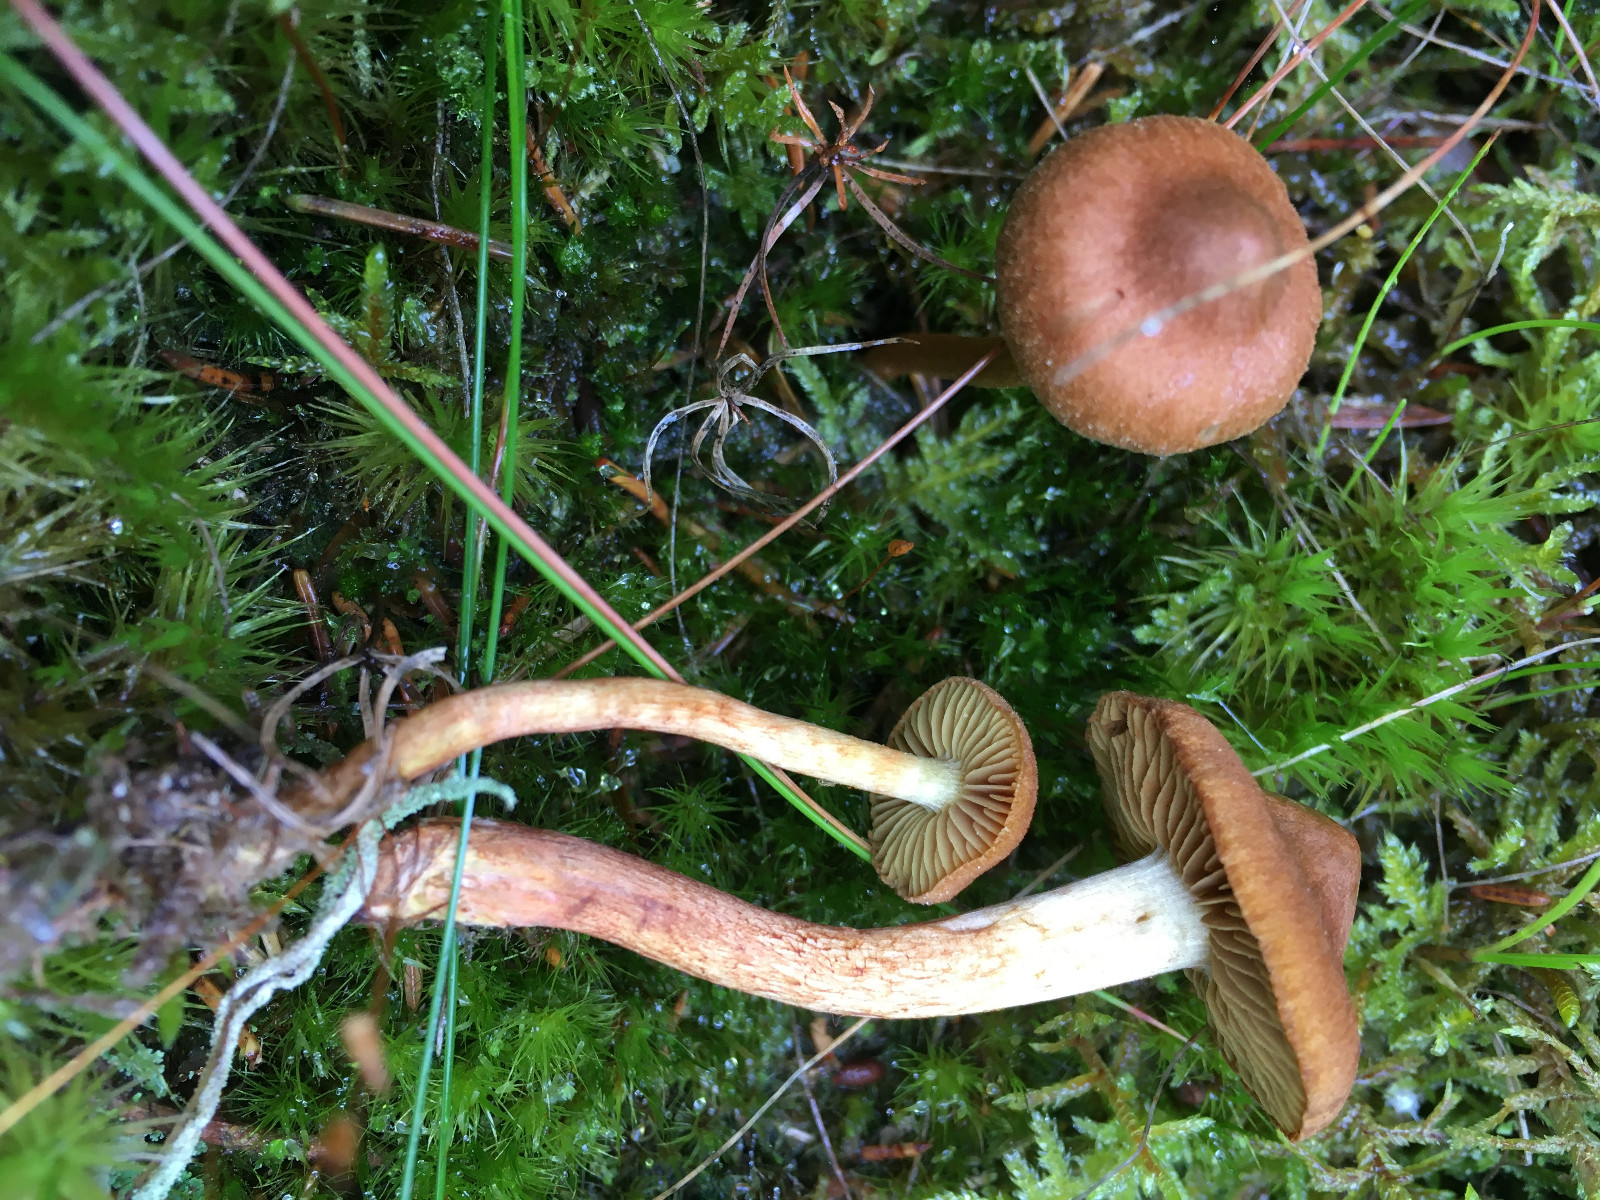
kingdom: Fungi
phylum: Basidiomycota
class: Agaricomycetes
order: Agaricales
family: Cortinariaceae
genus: Cortinarius
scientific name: Cortinarius gentilis
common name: bæltet slørhat
